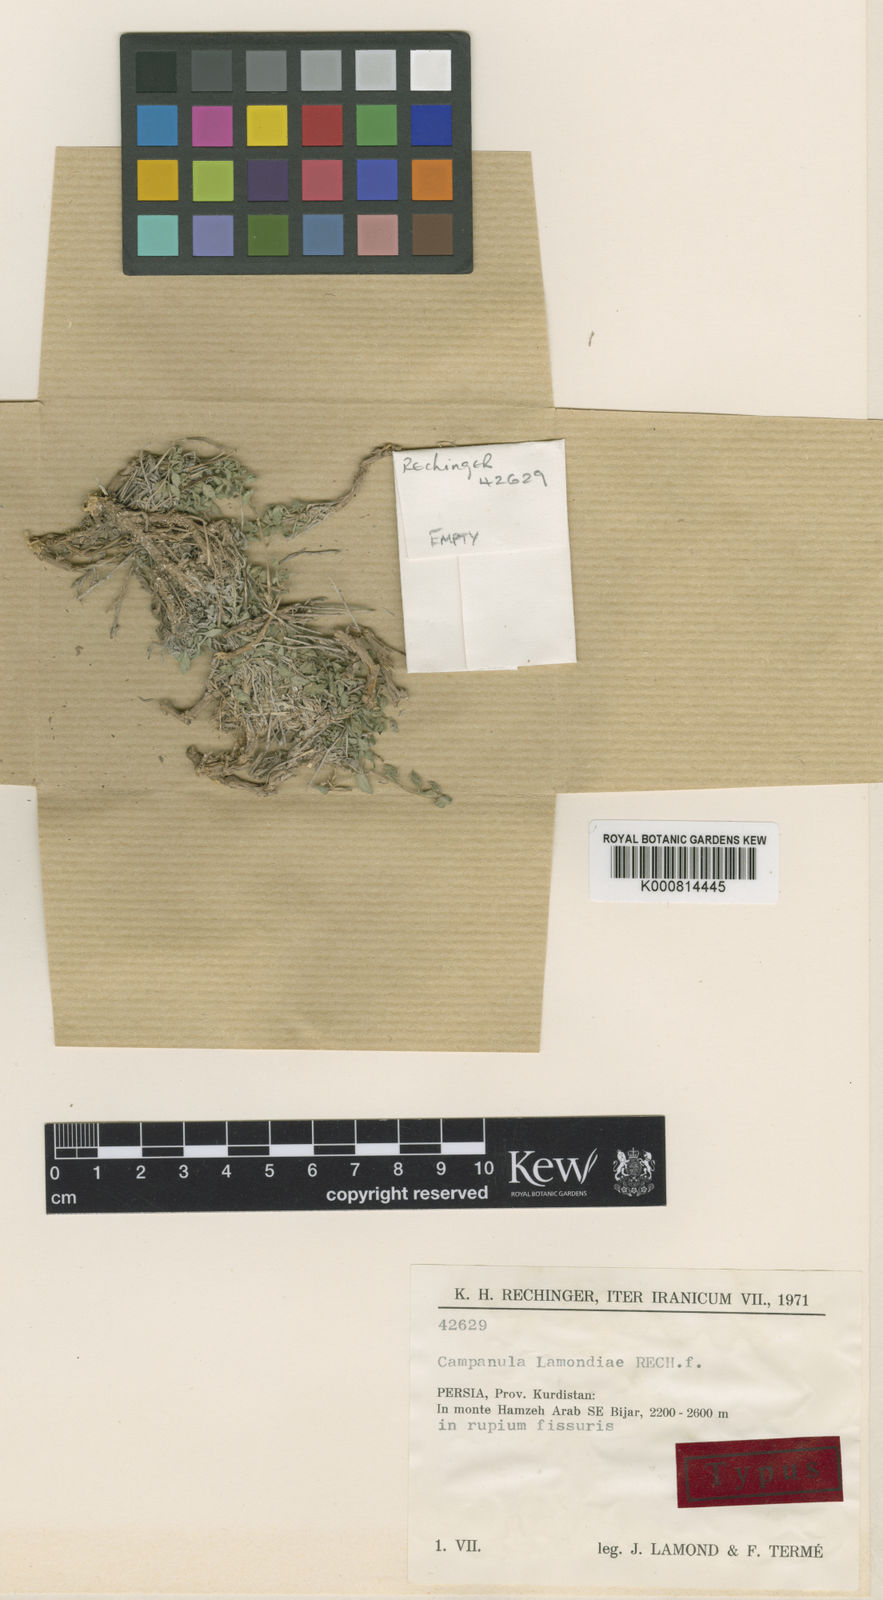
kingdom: Plantae
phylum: Tracheophyta
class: Magnoliopsida
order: Asterales
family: Campanulaceae
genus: Campanula
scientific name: Campanula lamondiae
